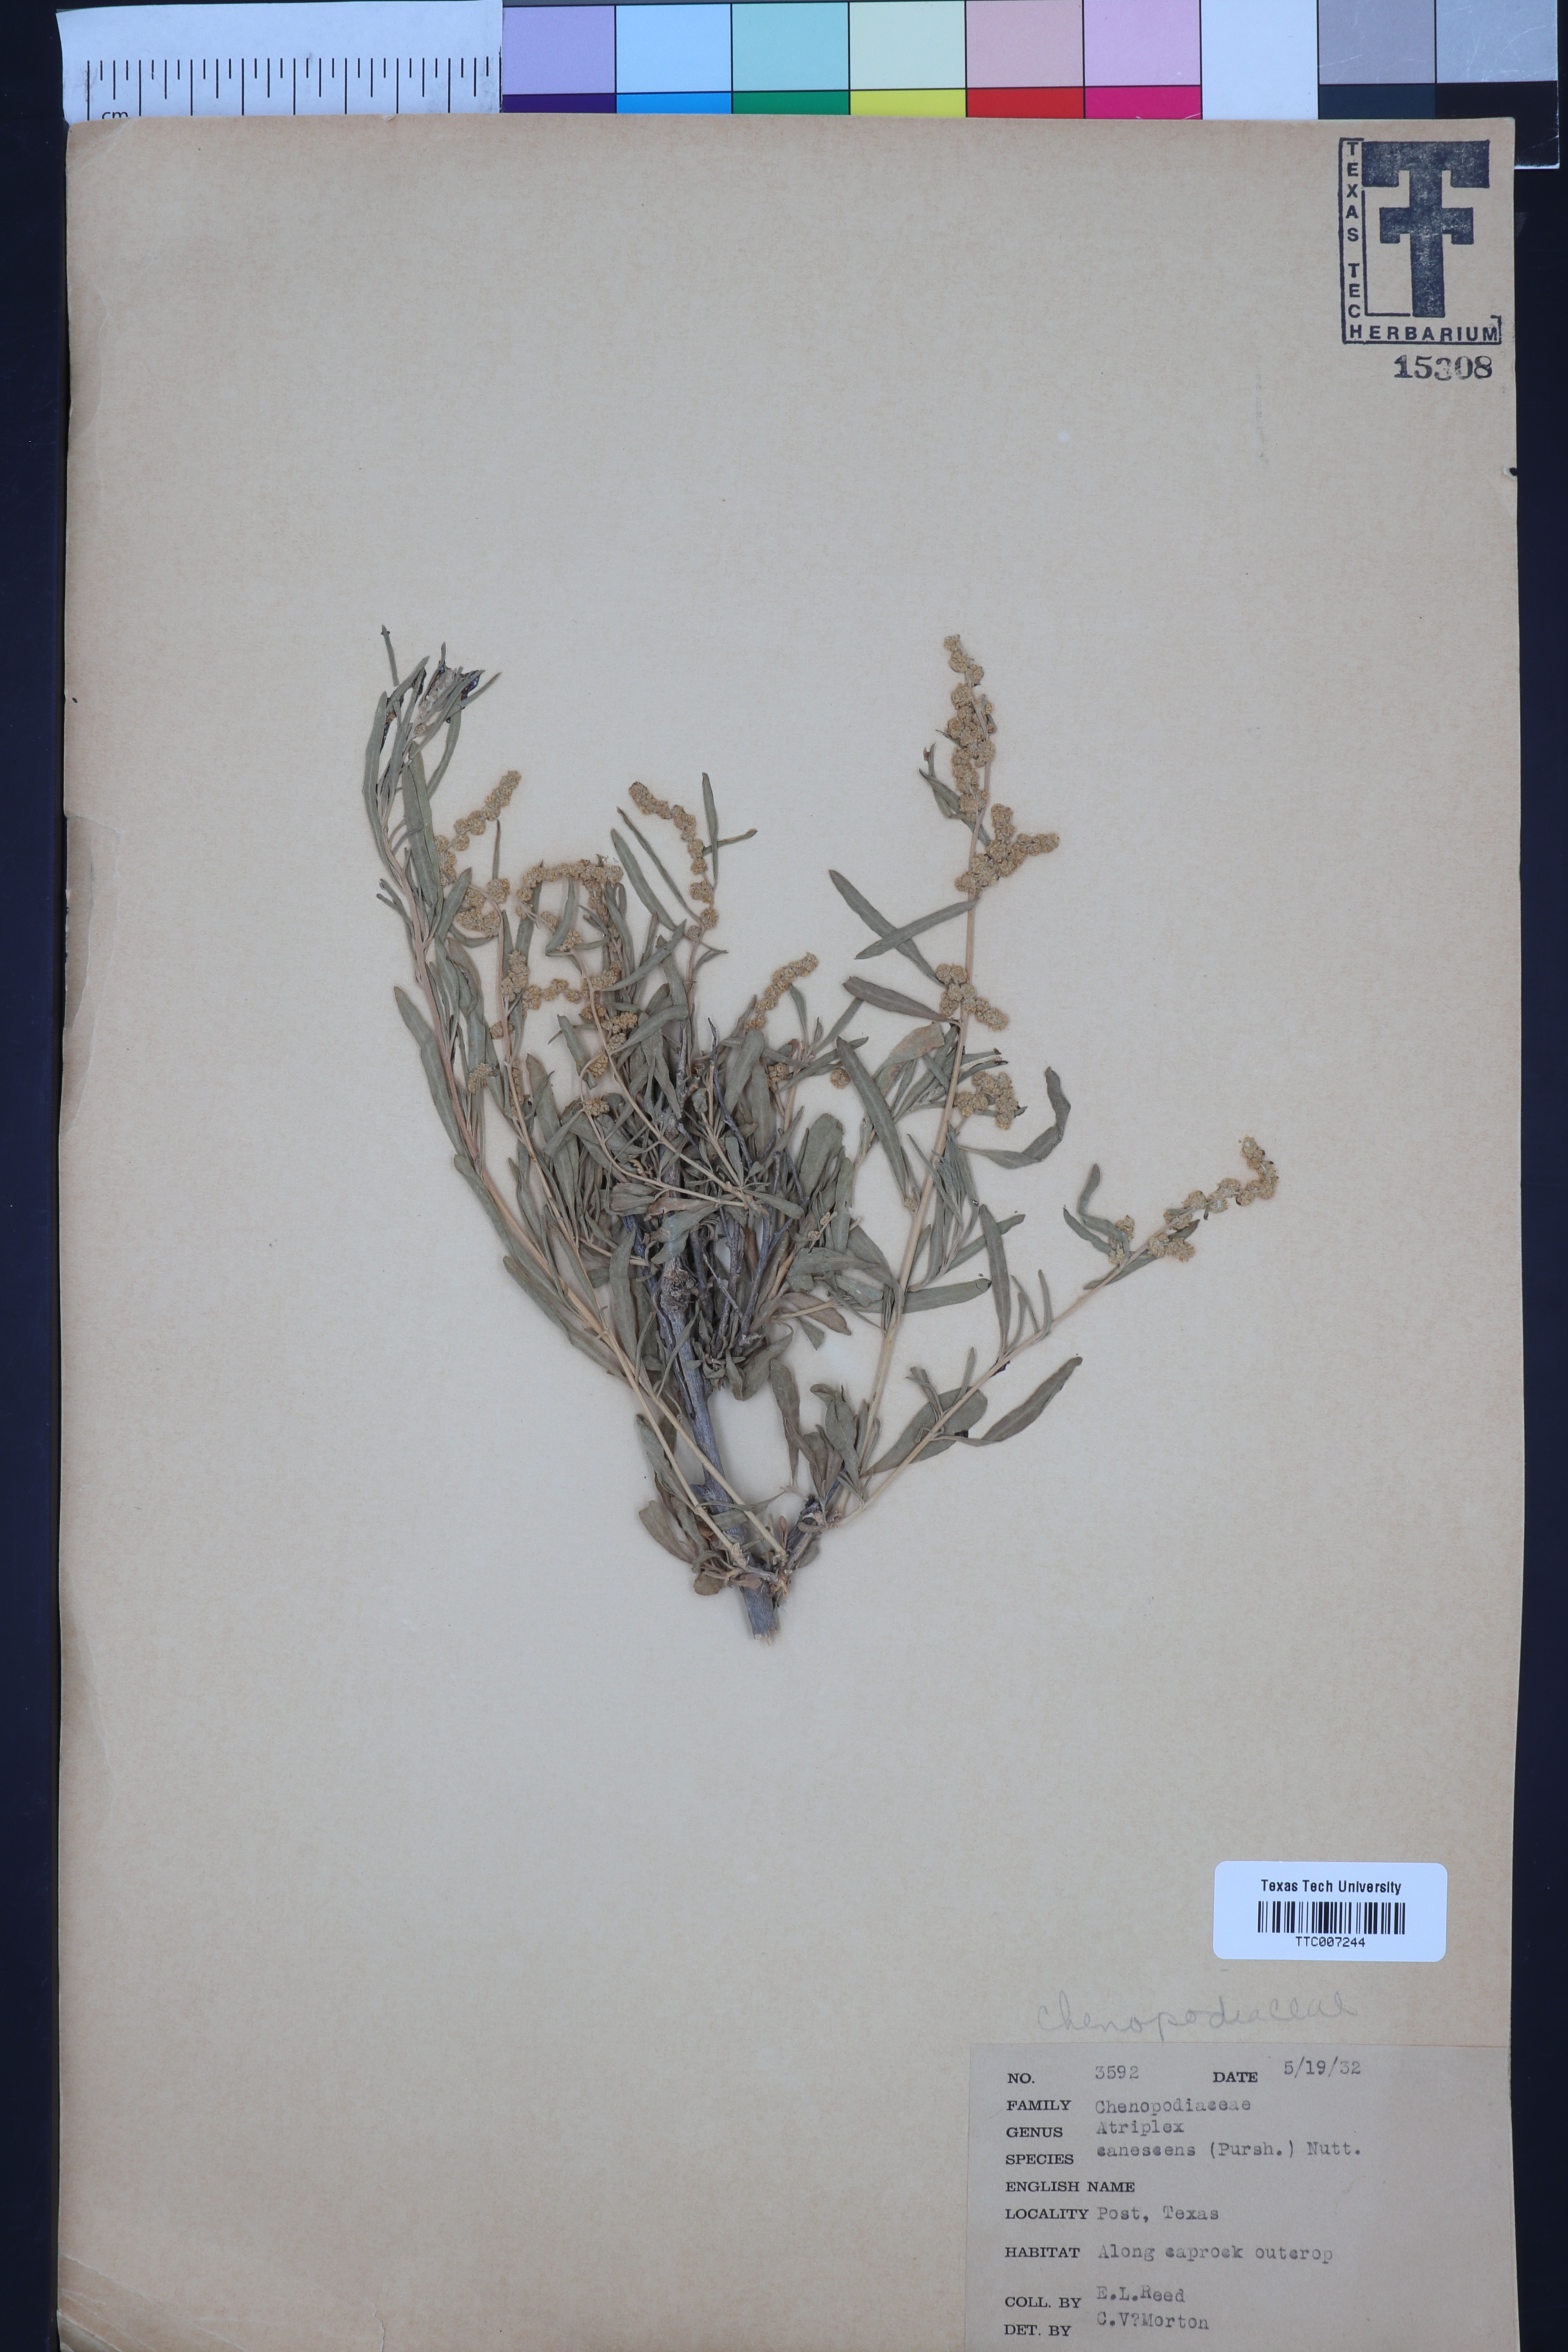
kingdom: Plantae
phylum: Tracheophyta
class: Magnoliopsida
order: Caryophyllales
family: Amaranthaceae
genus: Atriplex
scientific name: Atriplex canescens
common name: Four-wing saltbush
